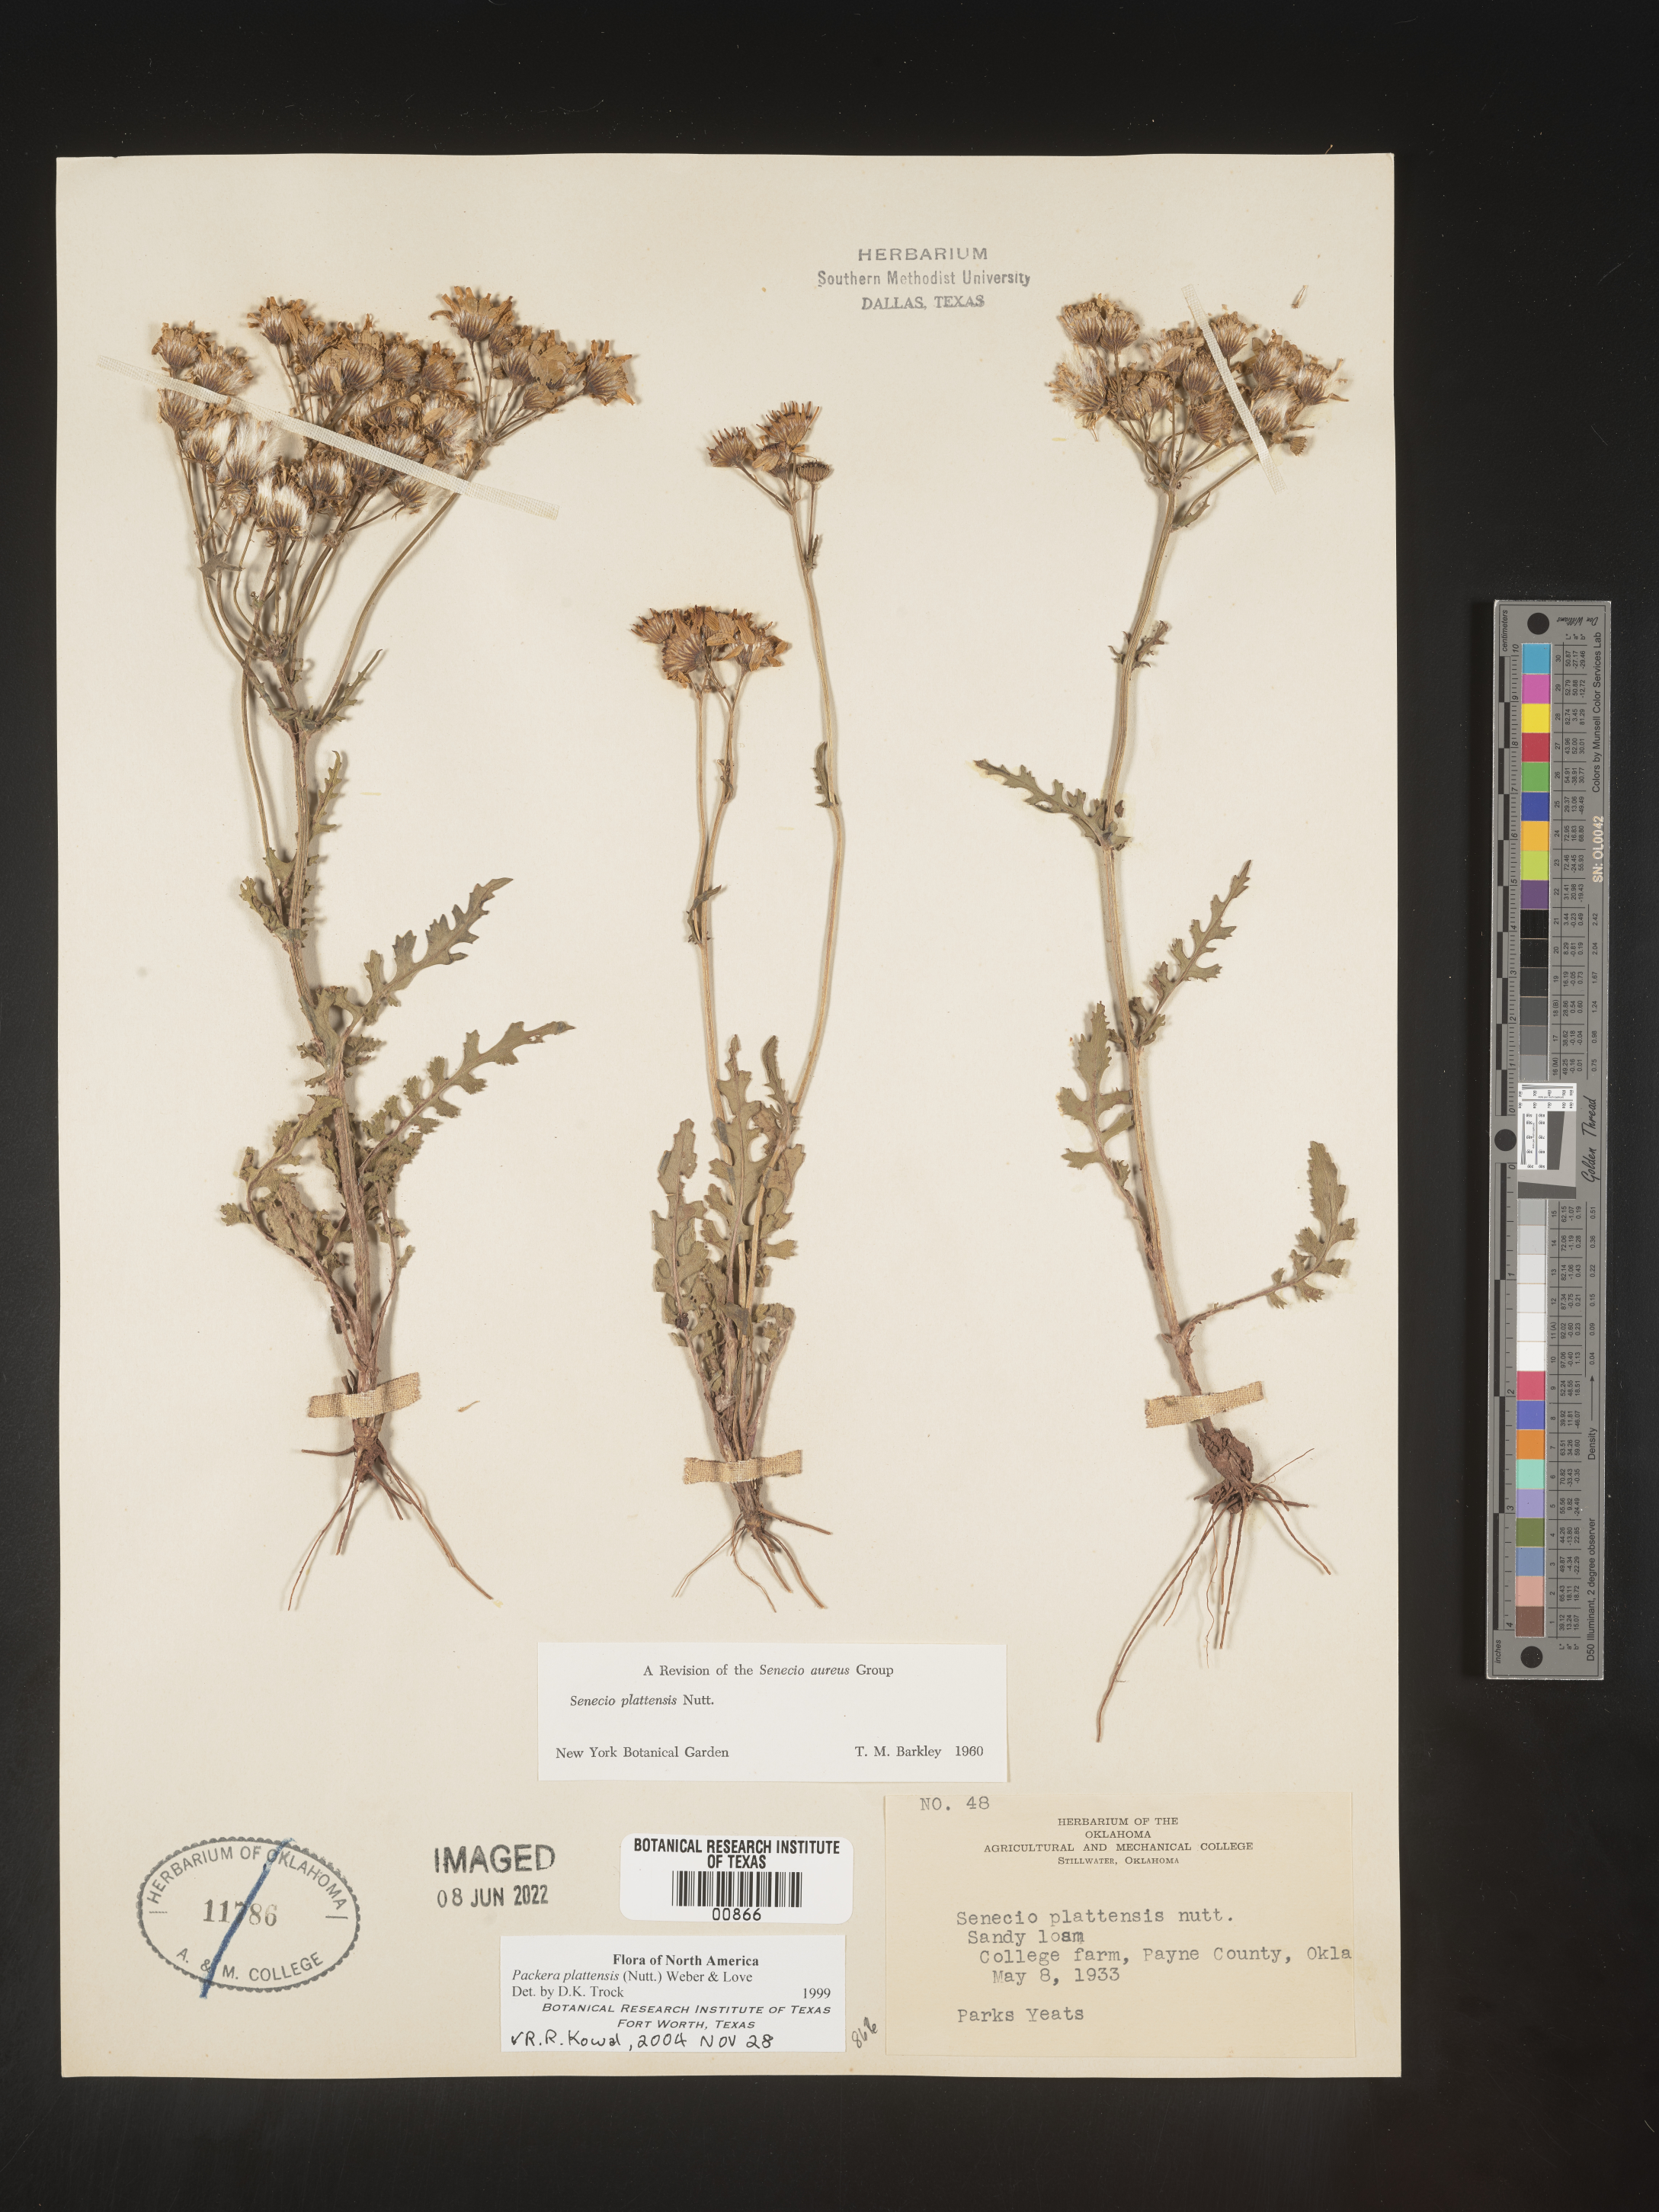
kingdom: Plantae
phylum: Tracheophyta
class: Magnoliopsida
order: Asterales
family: Asteraceae
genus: Packera
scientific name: Packera plattensis
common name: Prairie groundsel
